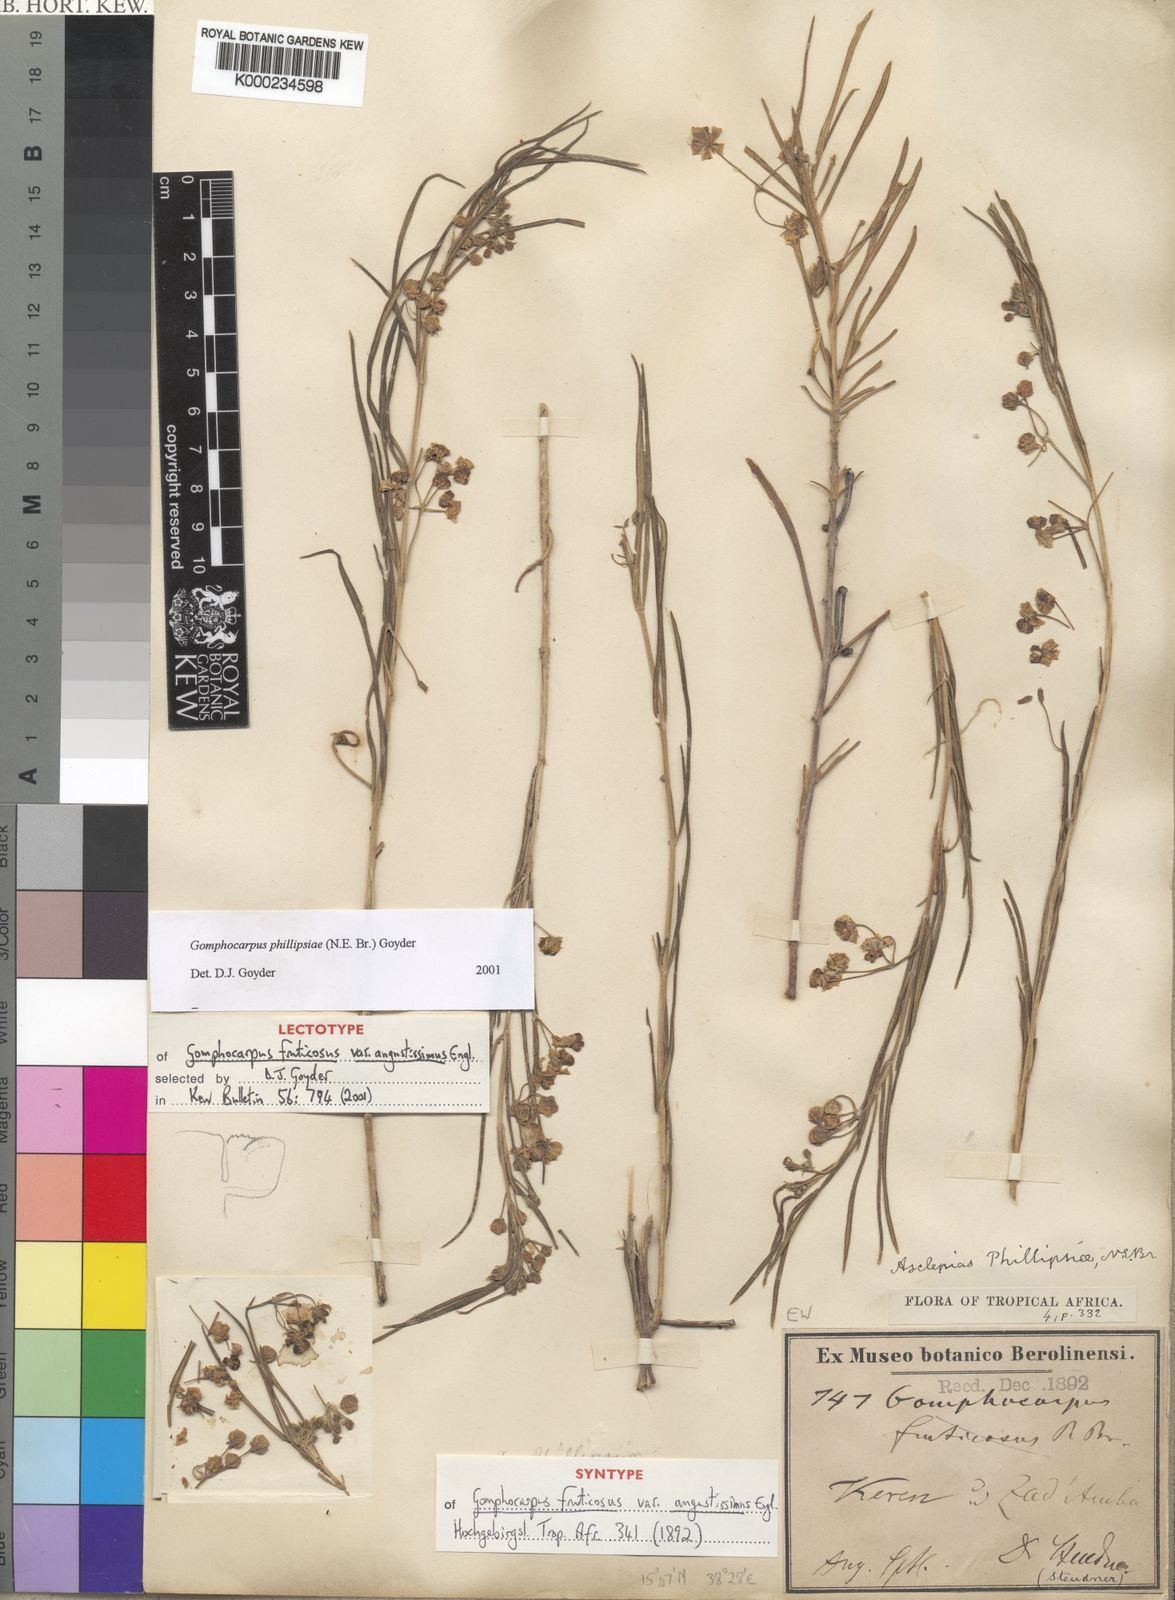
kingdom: Plantae
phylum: Tracheophyta
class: Magnoliopsida
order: Gentianales
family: Apocynaceae
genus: Gomphocarpus
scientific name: Gomphocarpus phillipsiae
